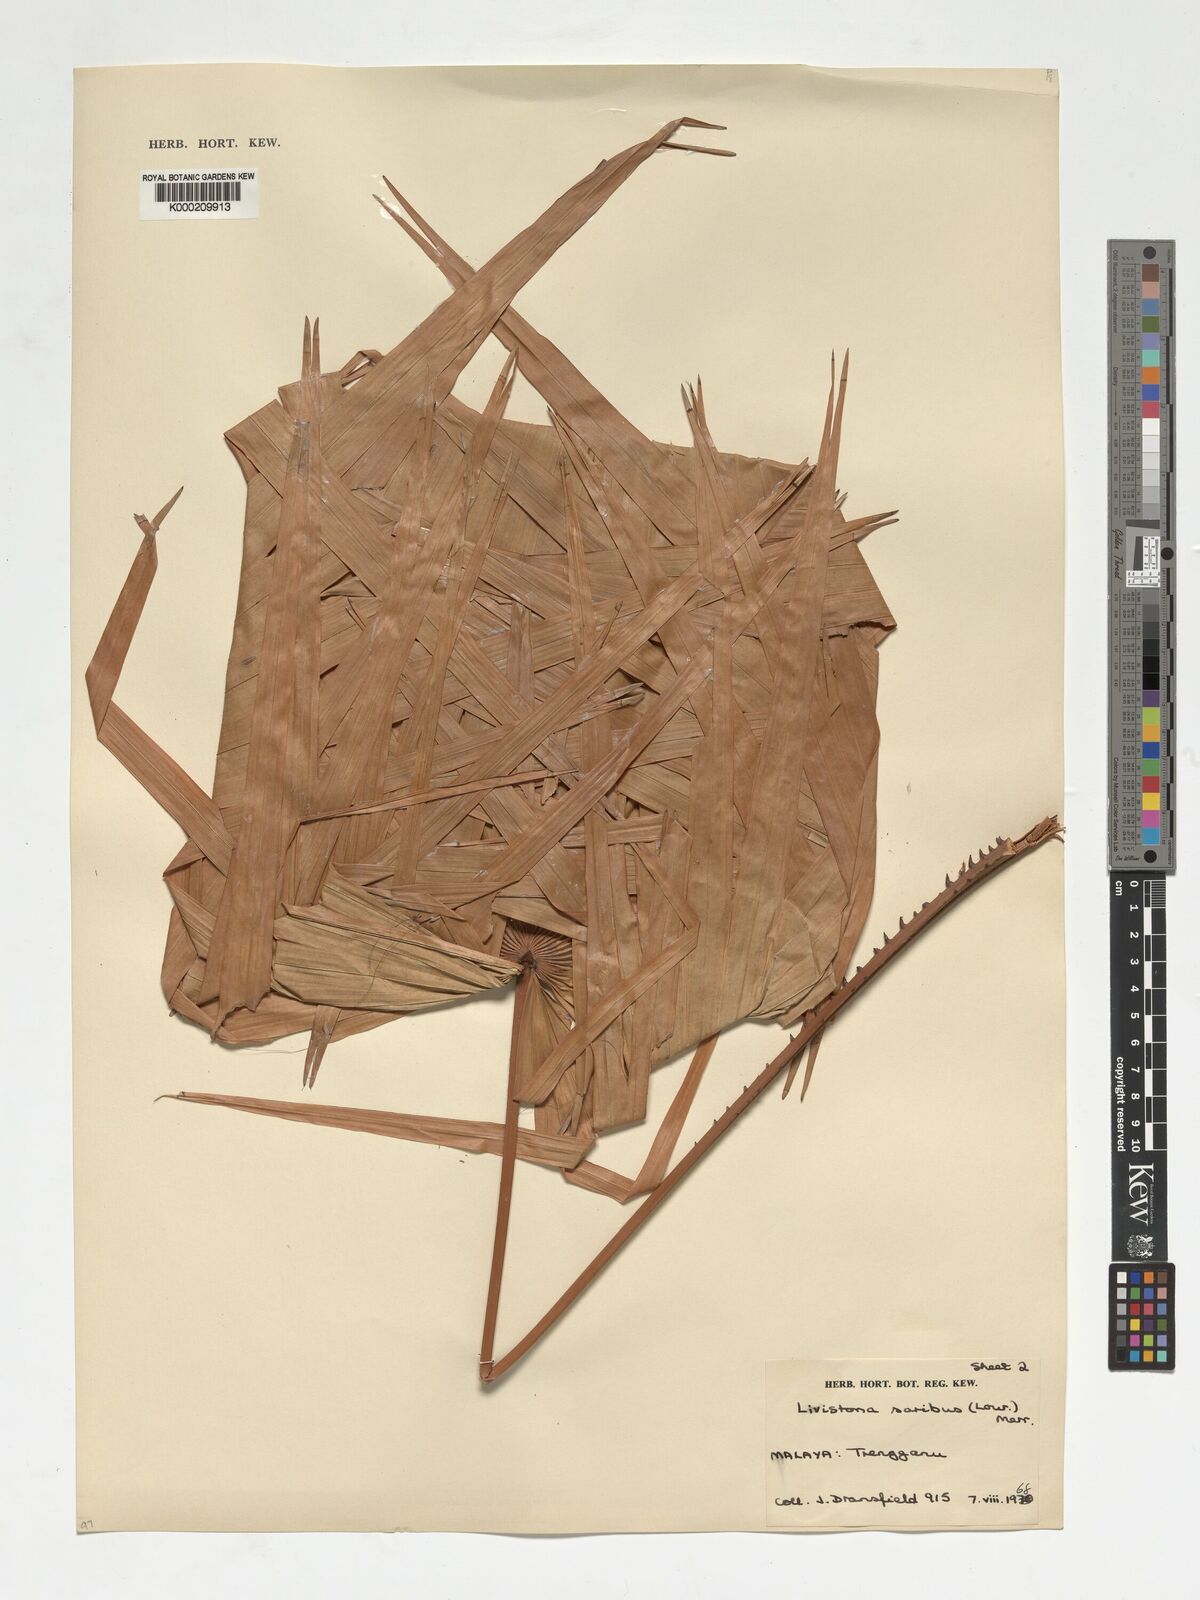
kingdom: Plantae
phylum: Tracheophyta
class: Liliopsida
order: Arecales
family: Arecaceae
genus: Livistona
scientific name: Livistona endauensis
